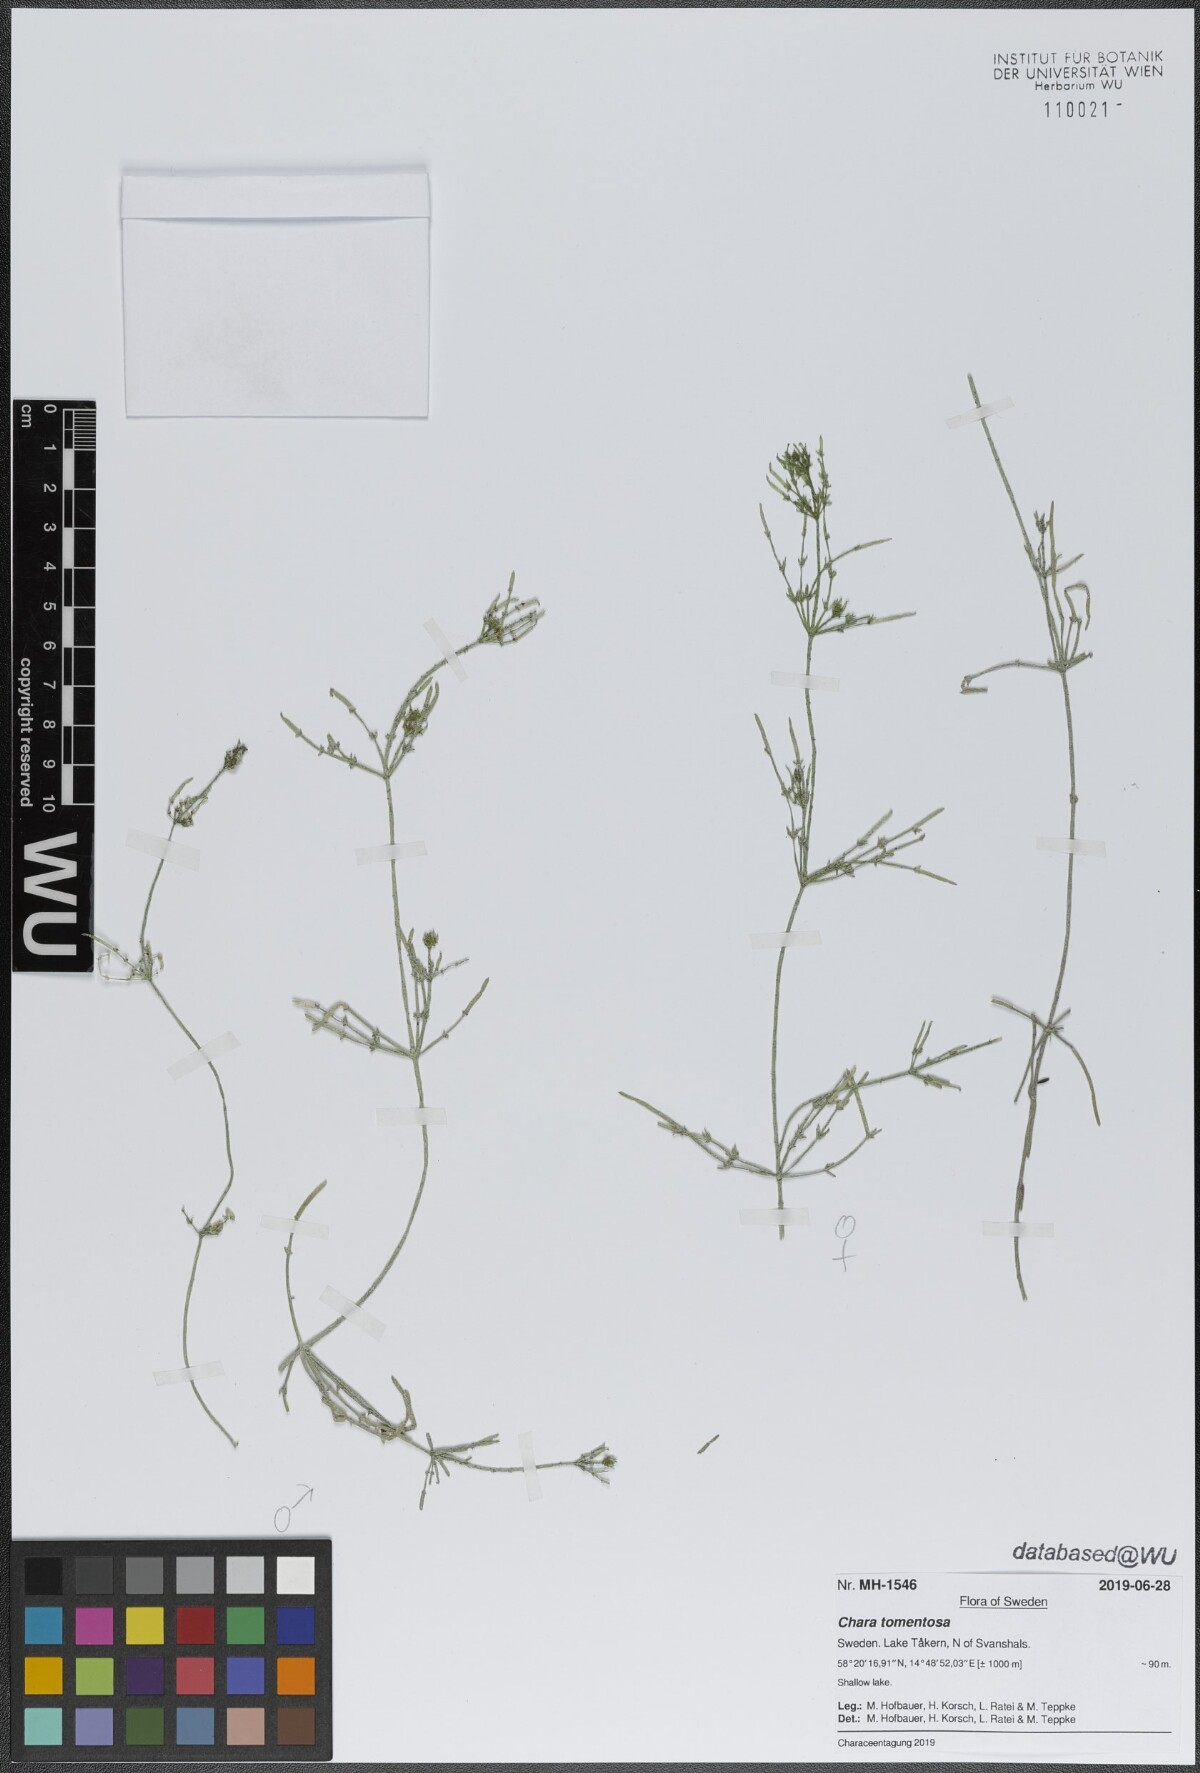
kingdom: Plantae
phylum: Charophyta
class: Charophyceae
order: Charales
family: Characeae
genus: Chara
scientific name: Chara tomentosa
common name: Coral stonewort
